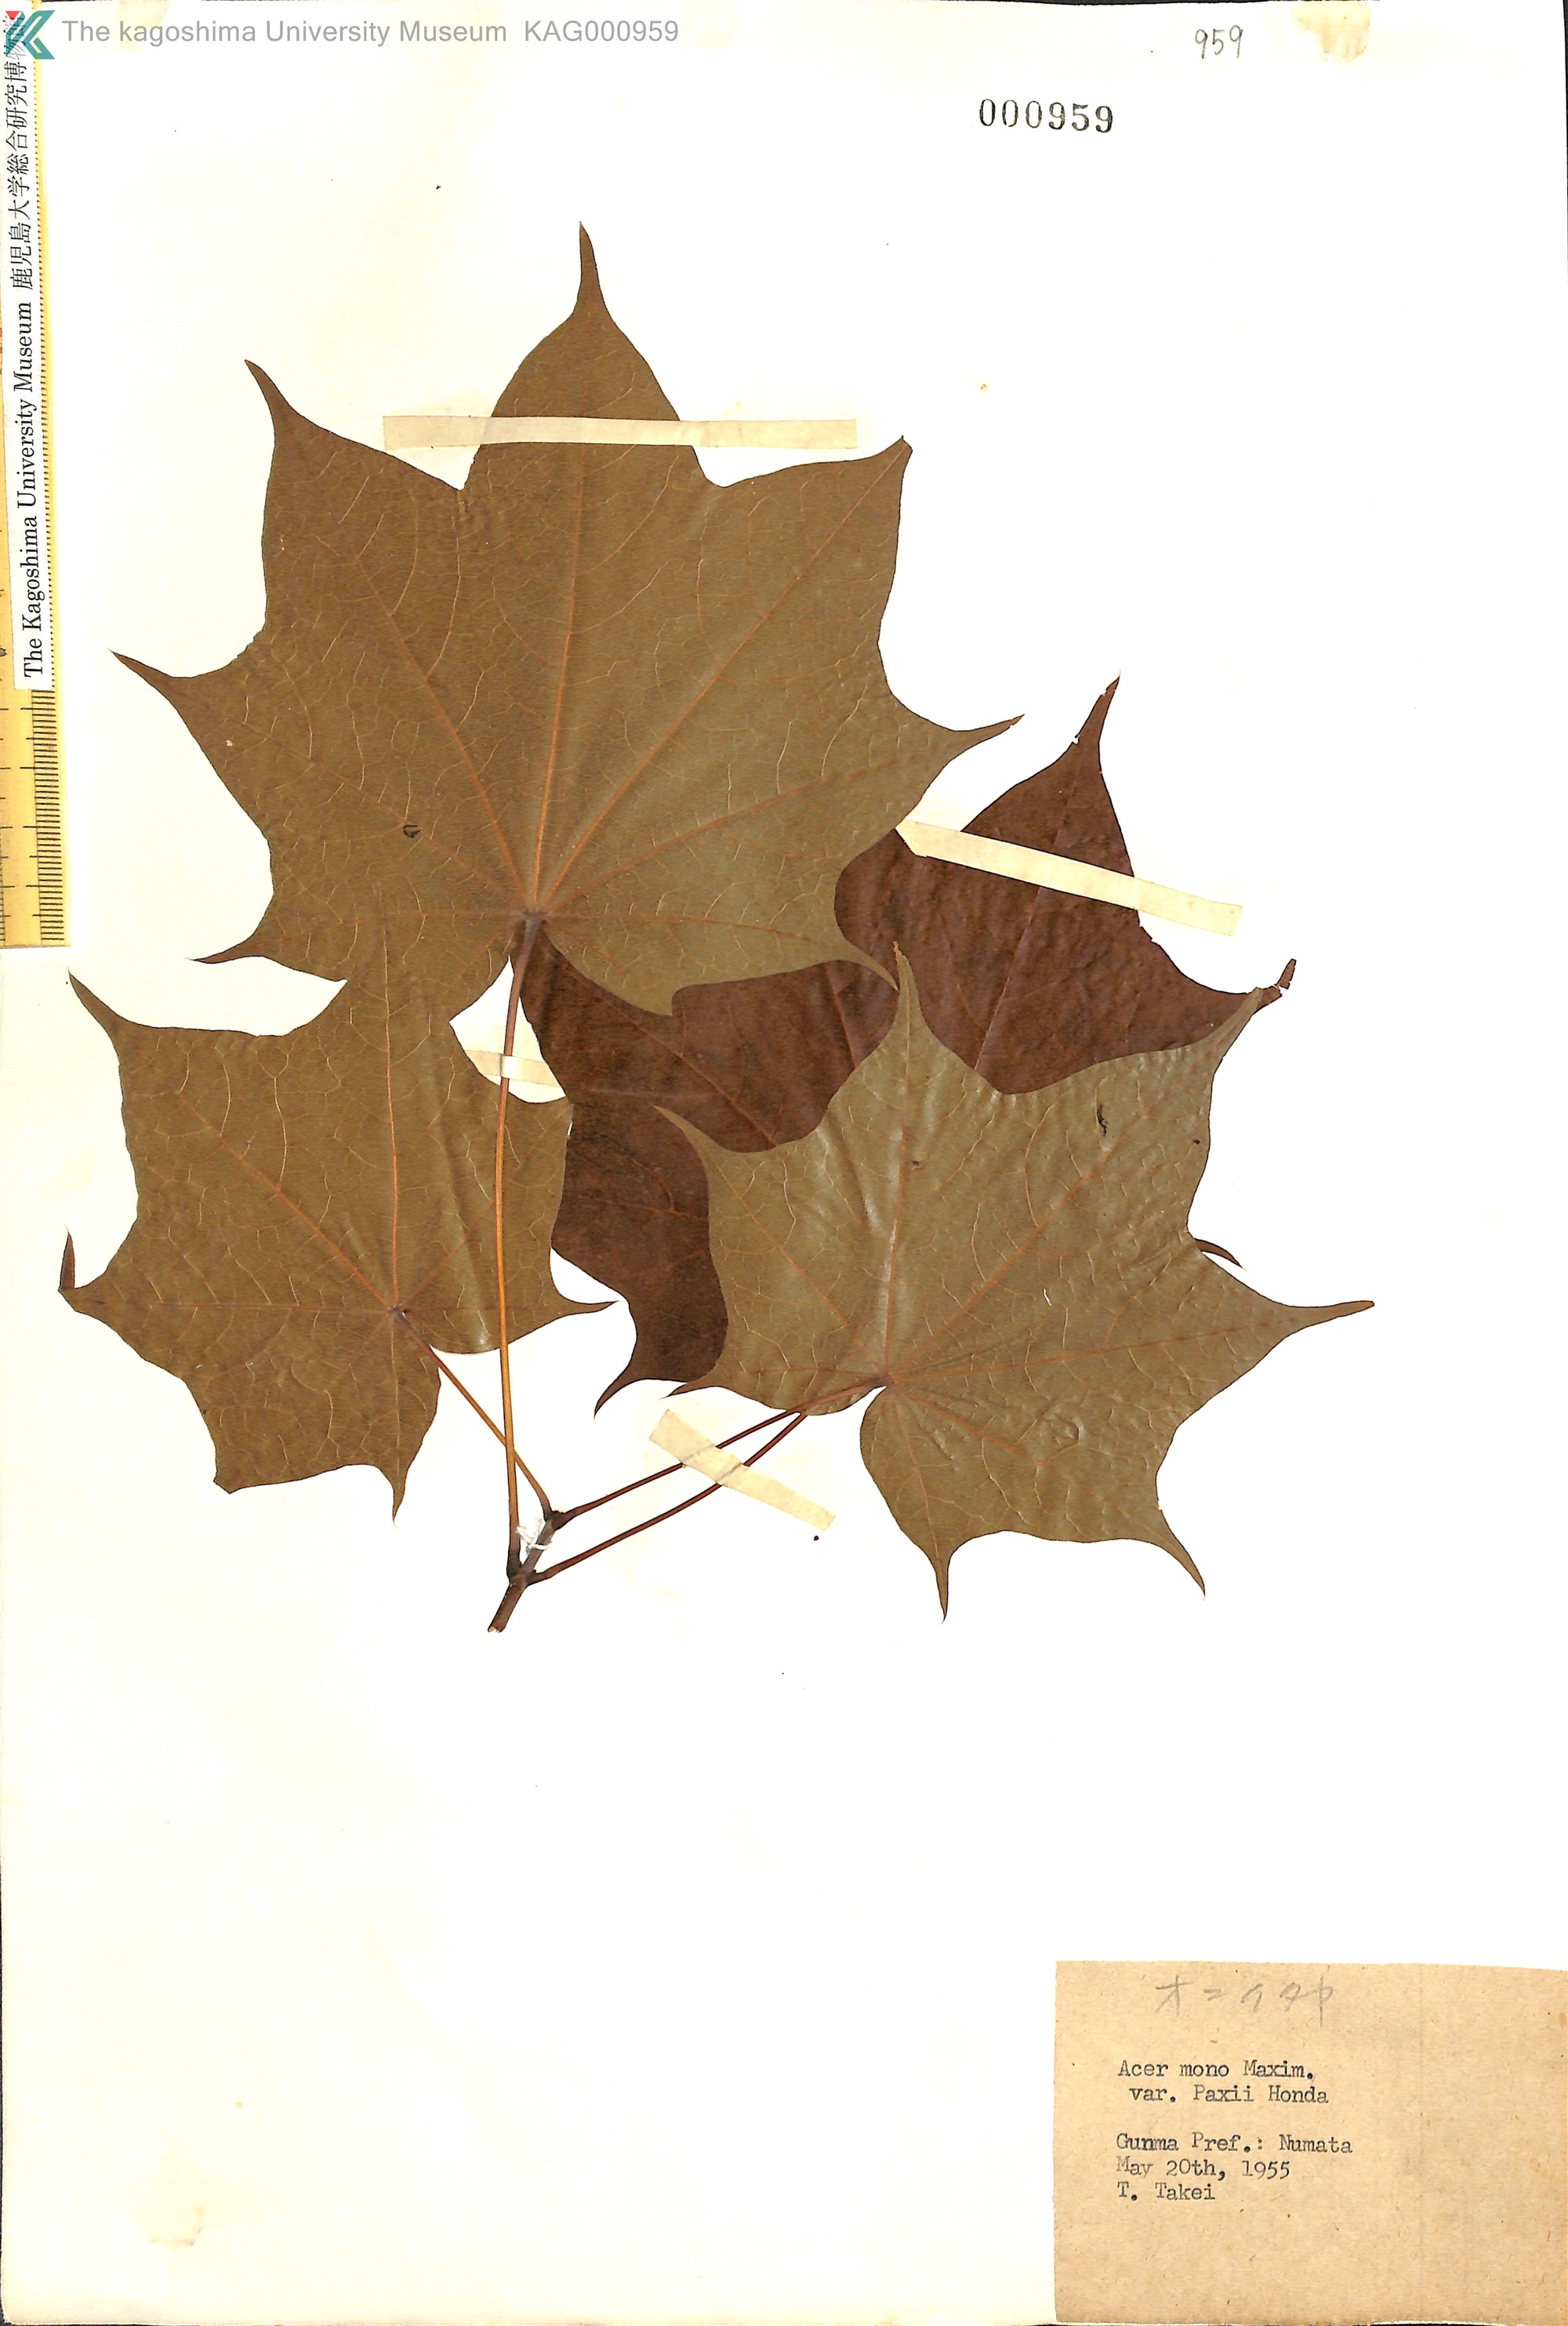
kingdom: Plantae
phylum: Tracheophyta
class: Magnoliopsida
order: Sapindales
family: Sapindaceae
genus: Acer
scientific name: Acer pictum
